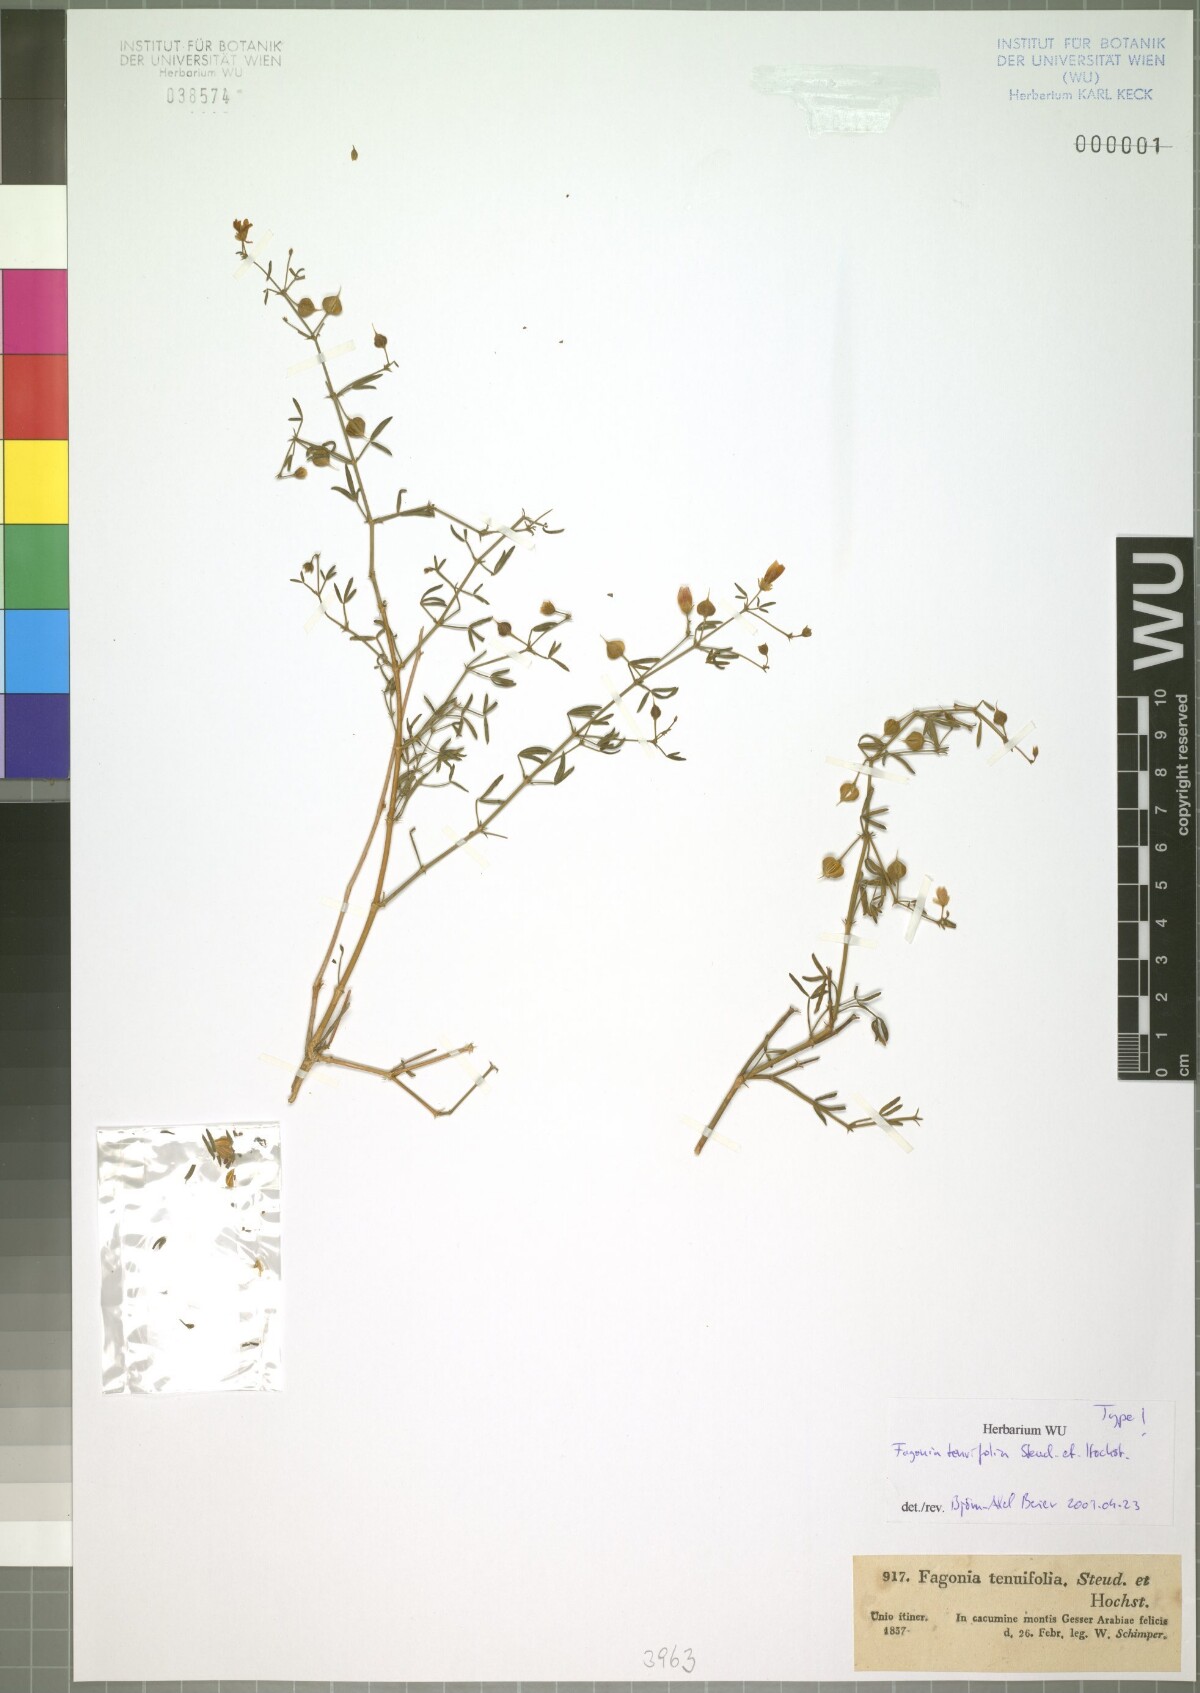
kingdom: Plantae
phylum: Tracheophyta
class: Magnoliopsida
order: Zygophyllales
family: Zygophyllaceae
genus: Fagonia
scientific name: Fagonia orientalis
